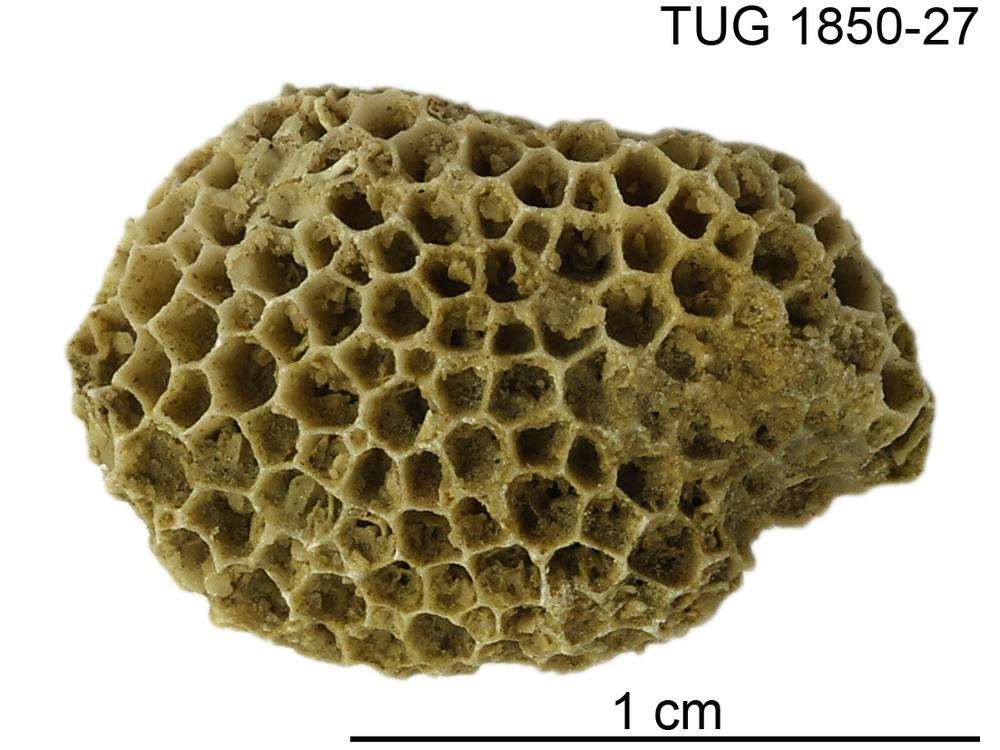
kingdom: Animalia
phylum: Cnidaria
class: Anthozoa
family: Favositidae
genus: Favosites
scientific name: Favosites
